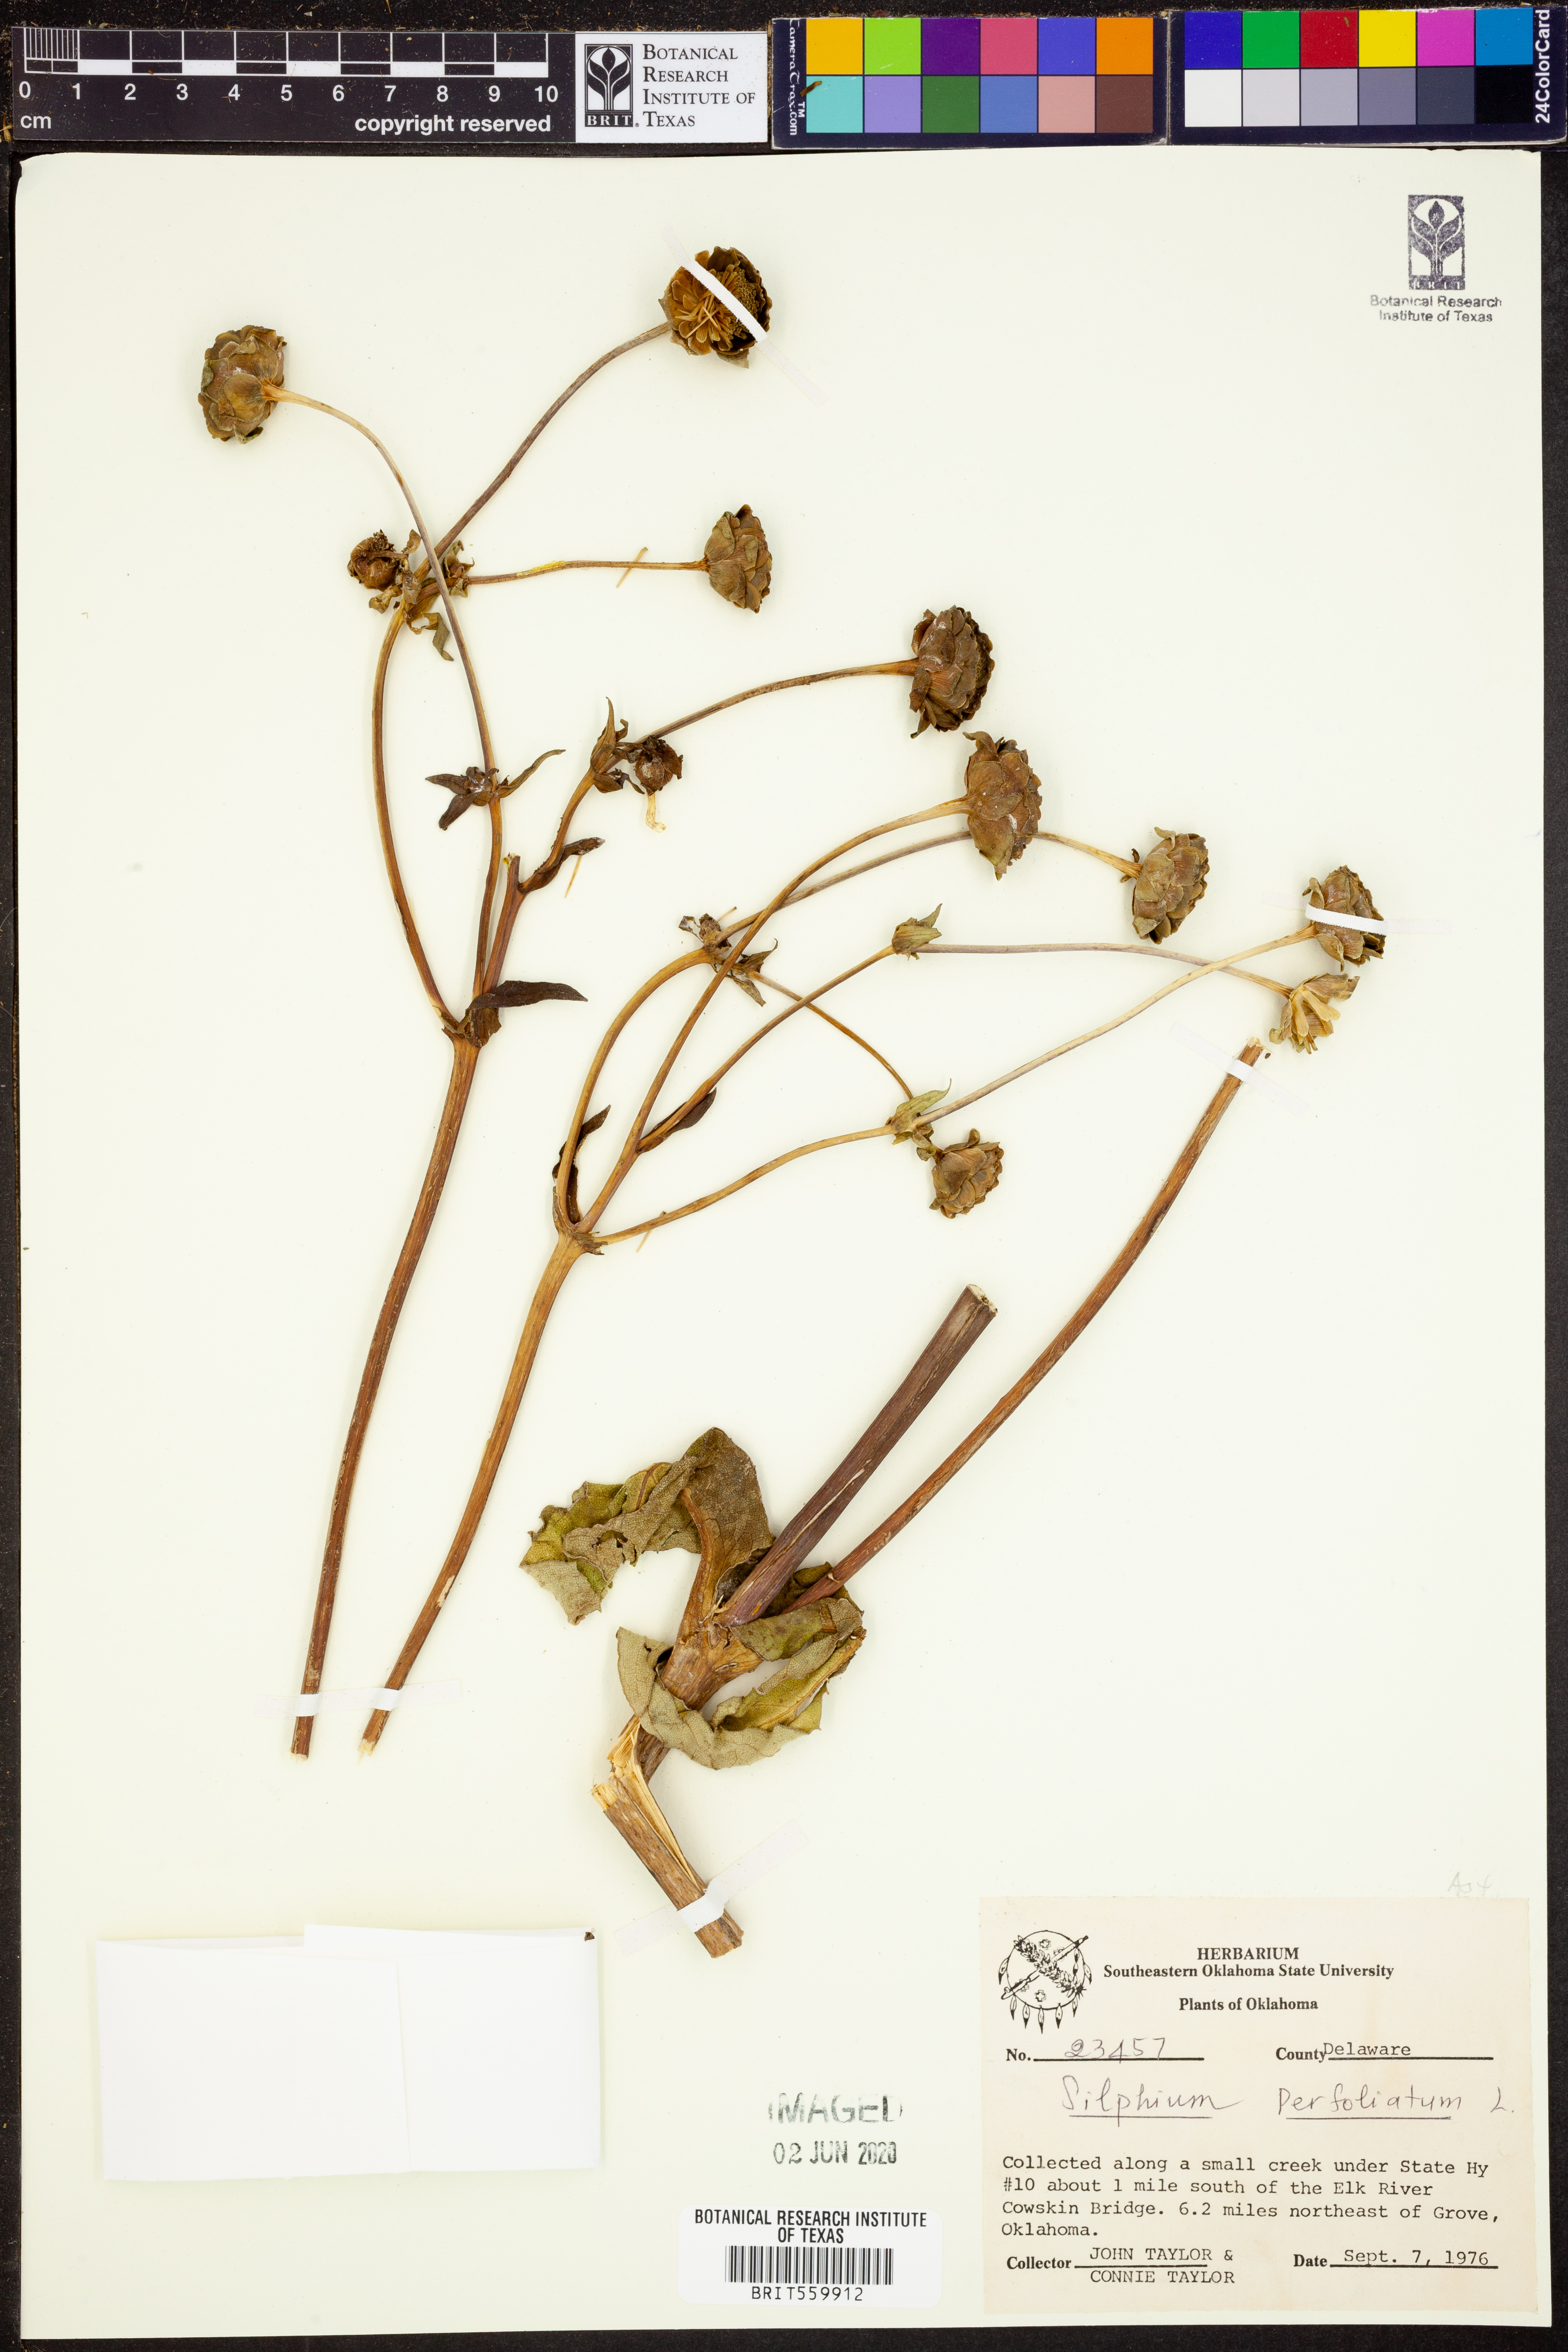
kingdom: Plantae
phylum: Tracheophyta
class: Magnoliopsida
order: Asterales
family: Asteraceae
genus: Silphium
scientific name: Silphium perfoliatum
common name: Cup-plant
